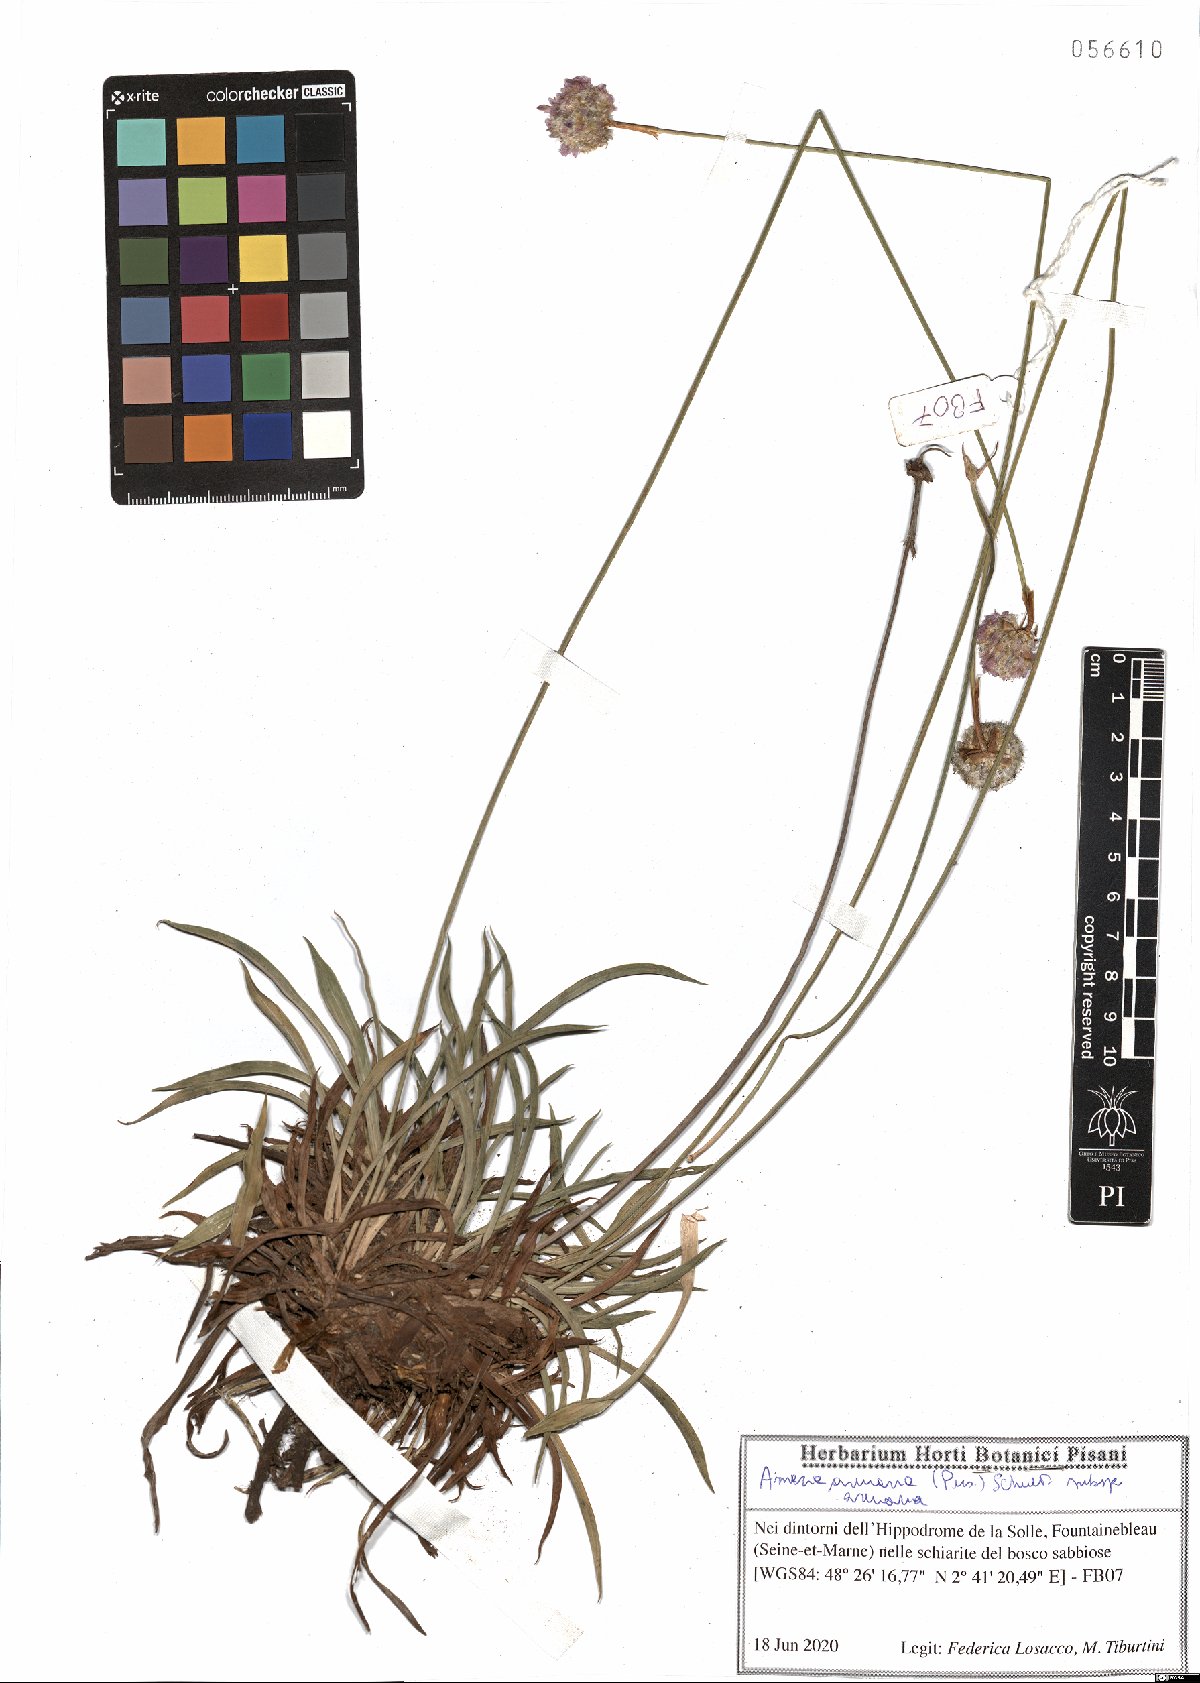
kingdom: Plantae
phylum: Tracheophyta
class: Magnoliopsida
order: Caryophyllales
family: Plumbaginaceae
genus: Armeria
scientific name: Armeria arenaria
